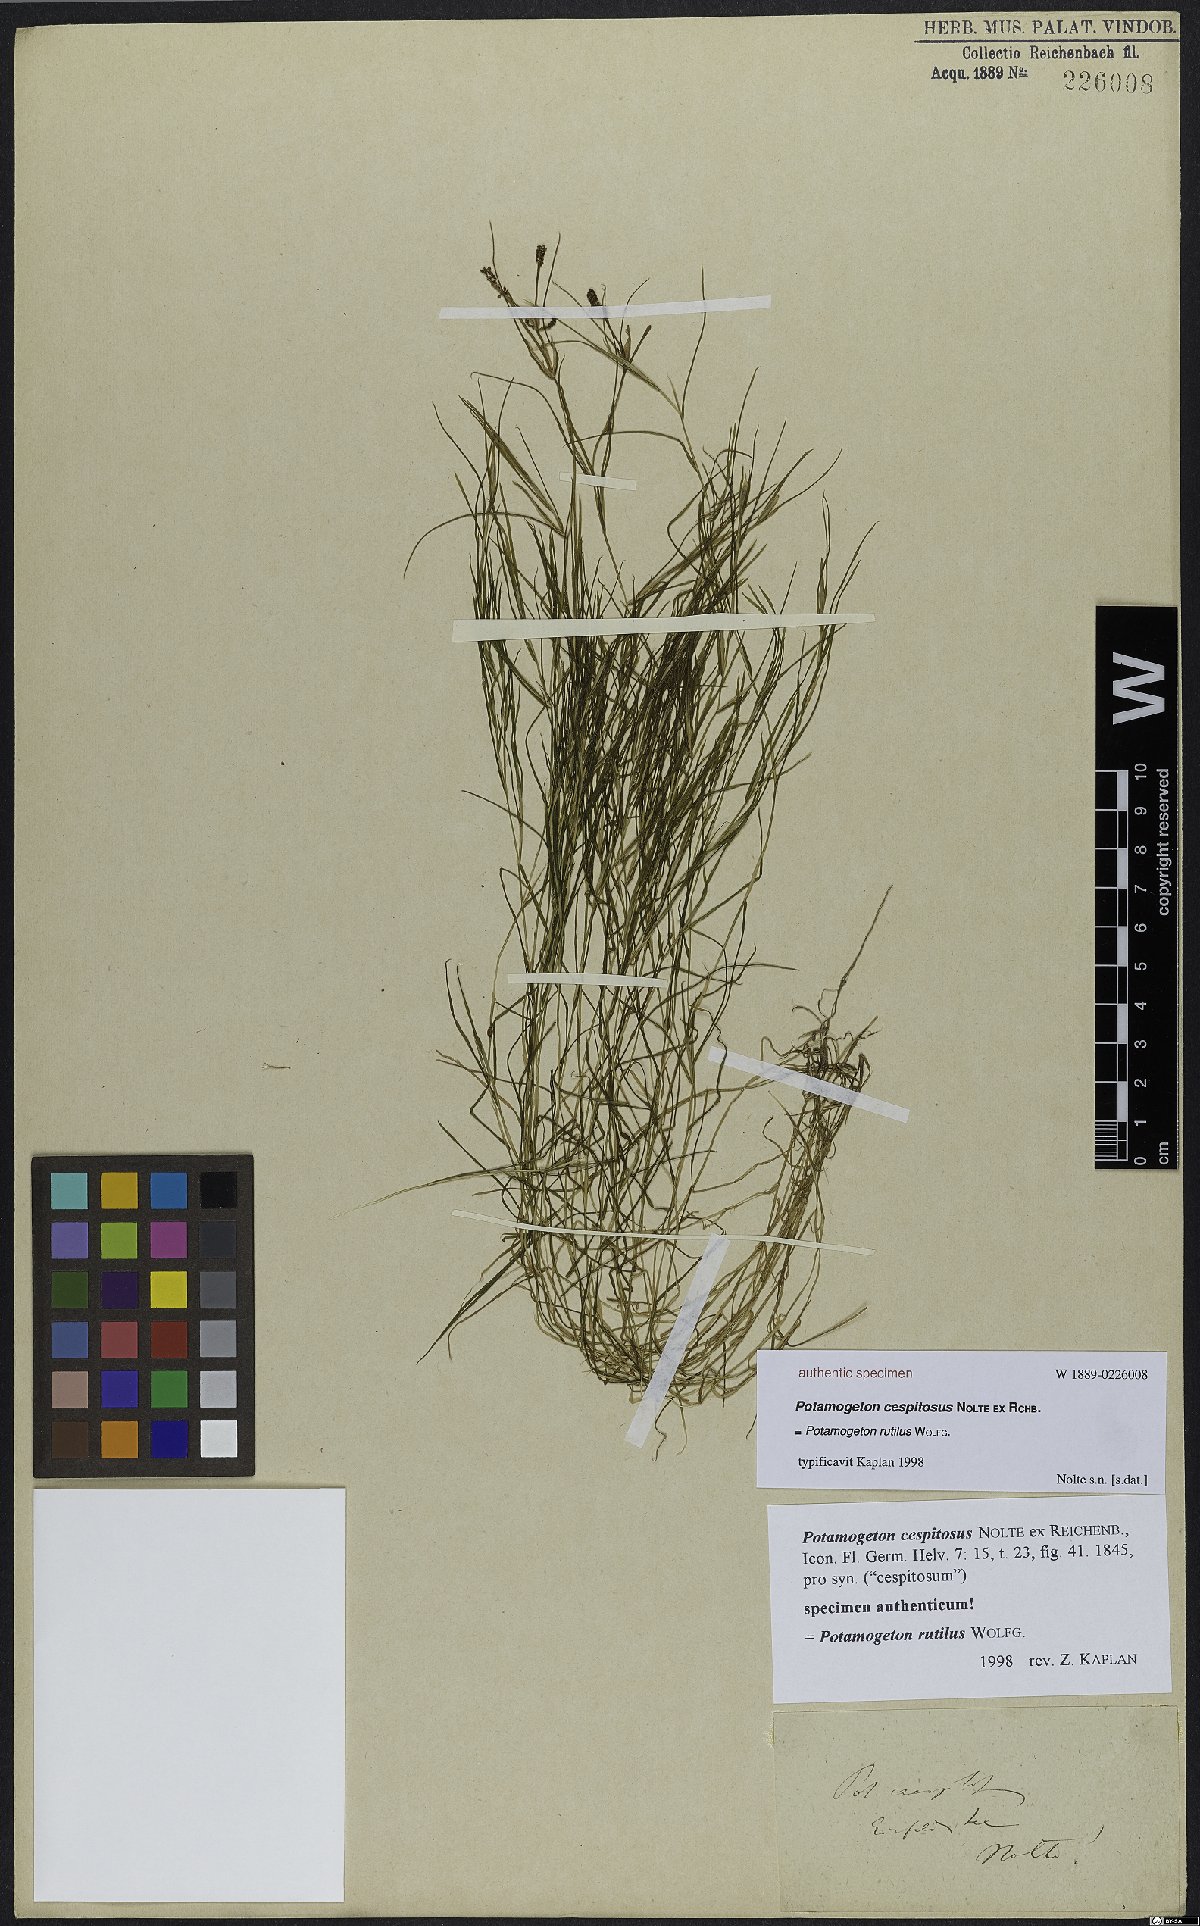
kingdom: Plantae
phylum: Tracheophyta
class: Liliopsida
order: Alismatales
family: Potamogetonaceae
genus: Potamogeton
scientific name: Potamogeton rutilus
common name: Shetland pondweed
